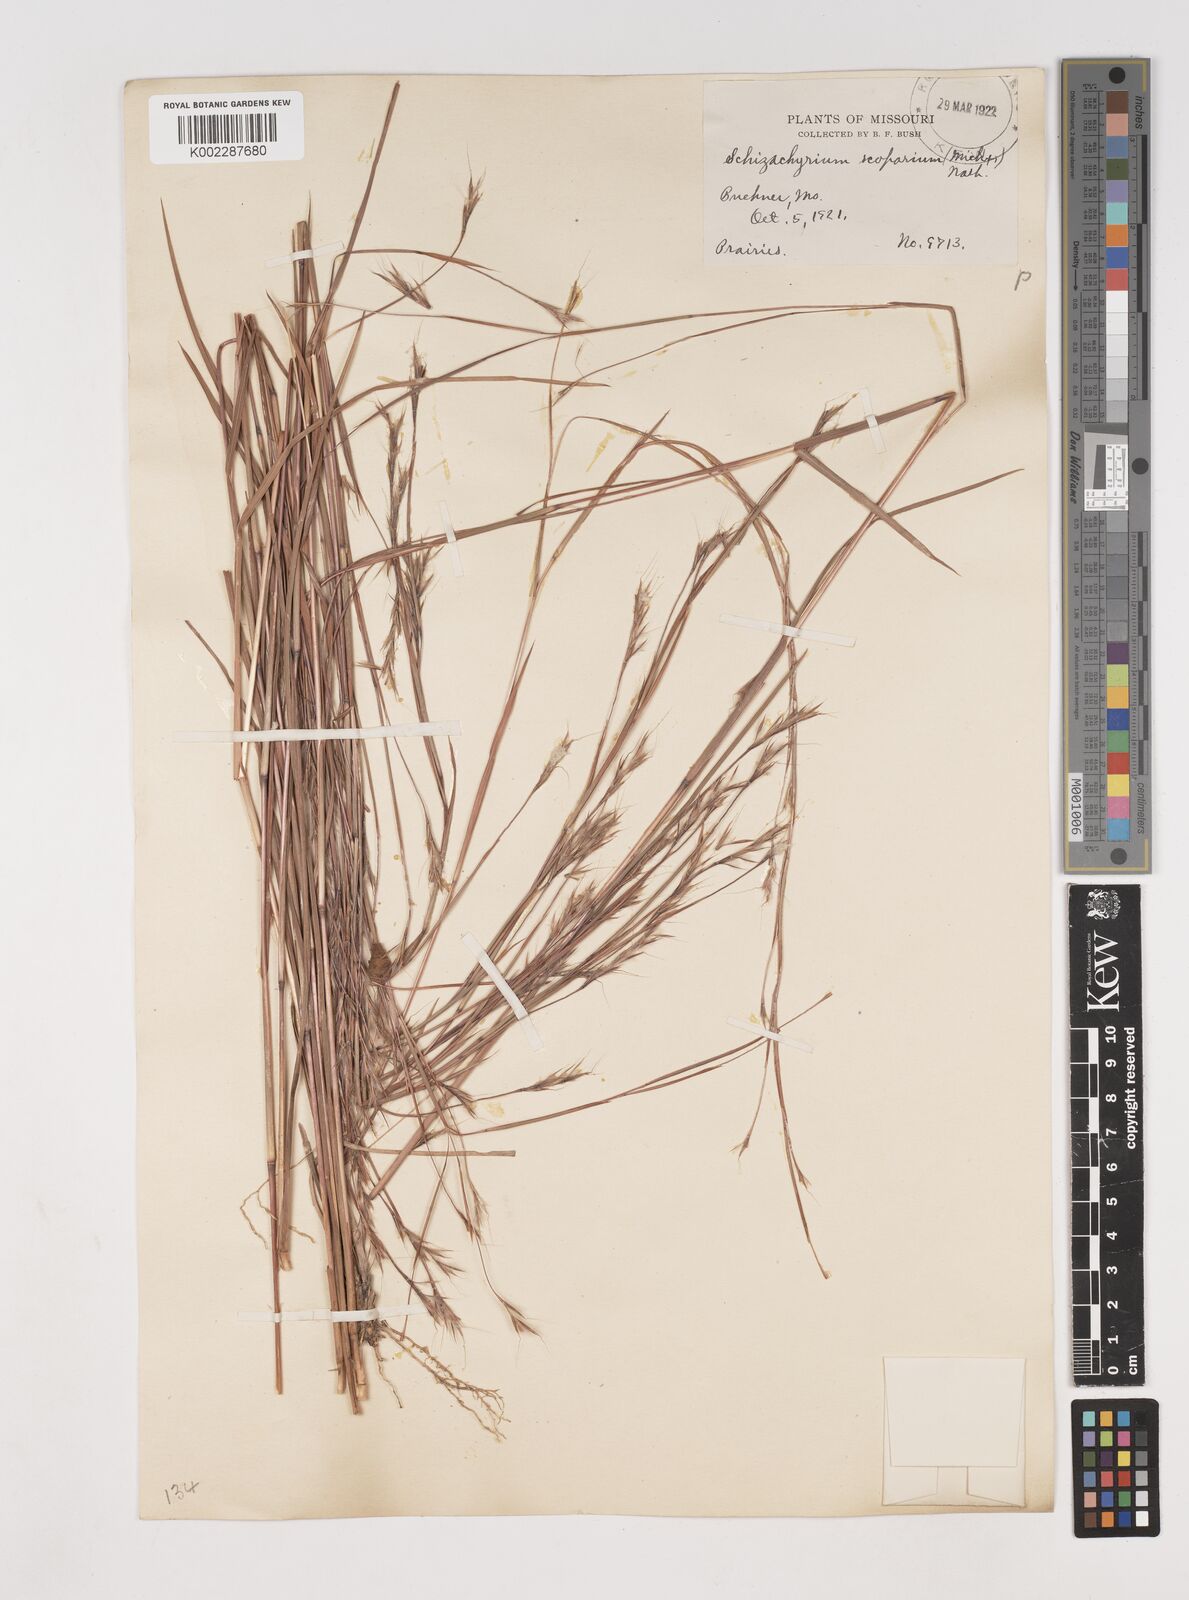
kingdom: Plantae
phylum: Tracheophyta
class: Liliopsida
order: Poales
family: Poaceae
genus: Schizachyrium
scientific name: Schizachyrium scoparium
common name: Little bluestem
